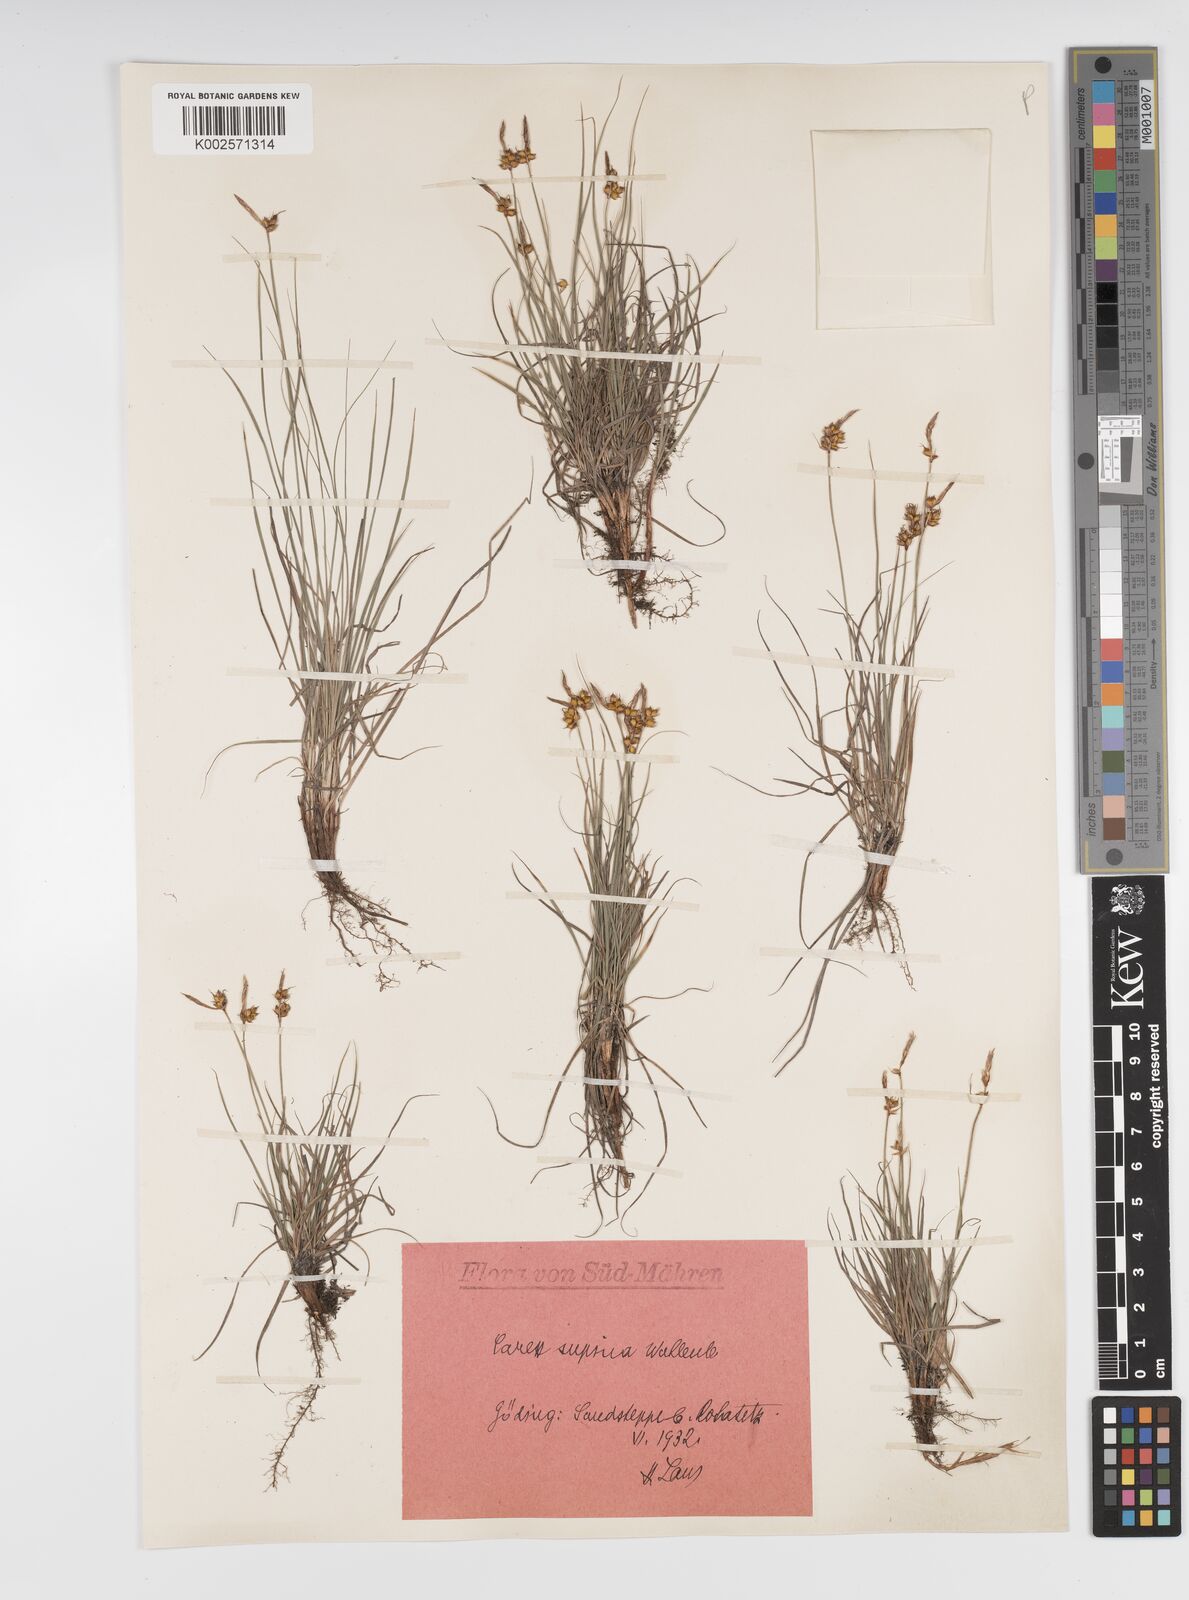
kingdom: Plantae
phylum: Tracheophyta
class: Liliopsida
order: Poales
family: Cyperaceae
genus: Carex
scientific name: Carex supina
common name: Lying-back sedge
